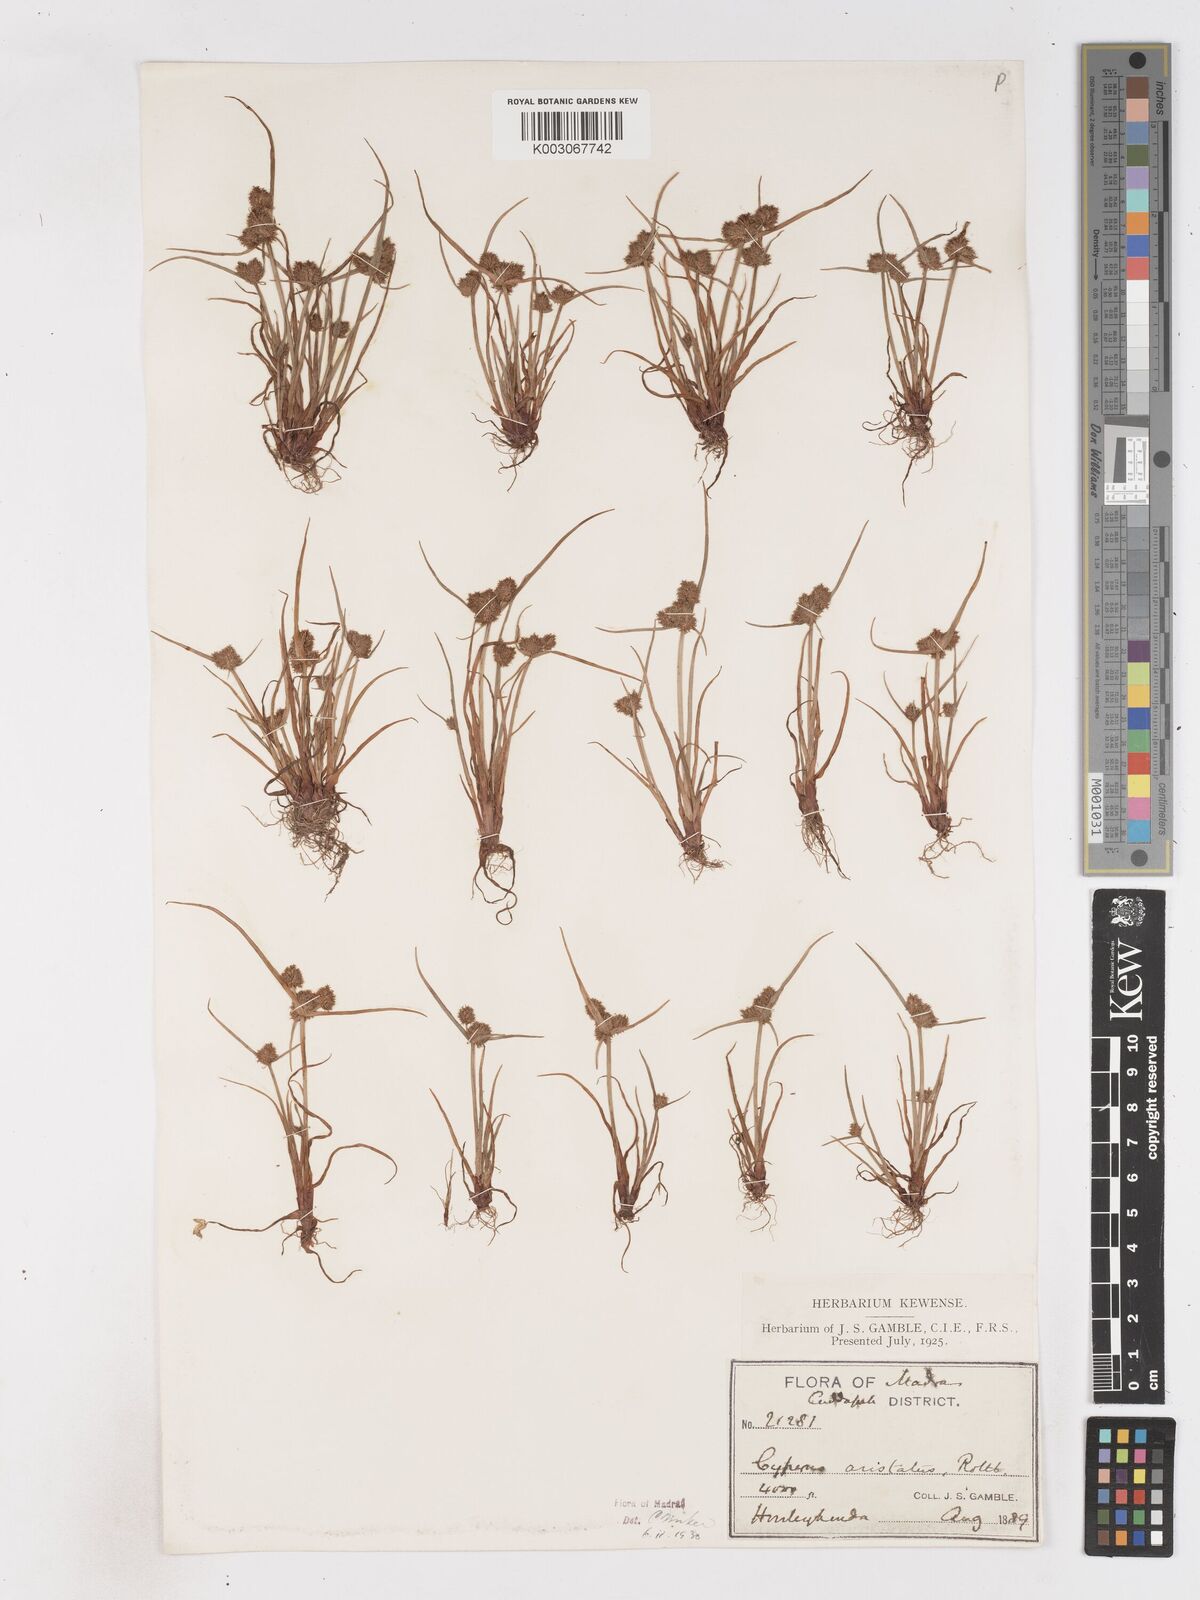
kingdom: Plantae
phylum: Tracheophyta
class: Liliopsida
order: Poales
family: Cyperaceae
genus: Cyperus
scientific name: Cyperus squarrosus
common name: Awned cyperus
